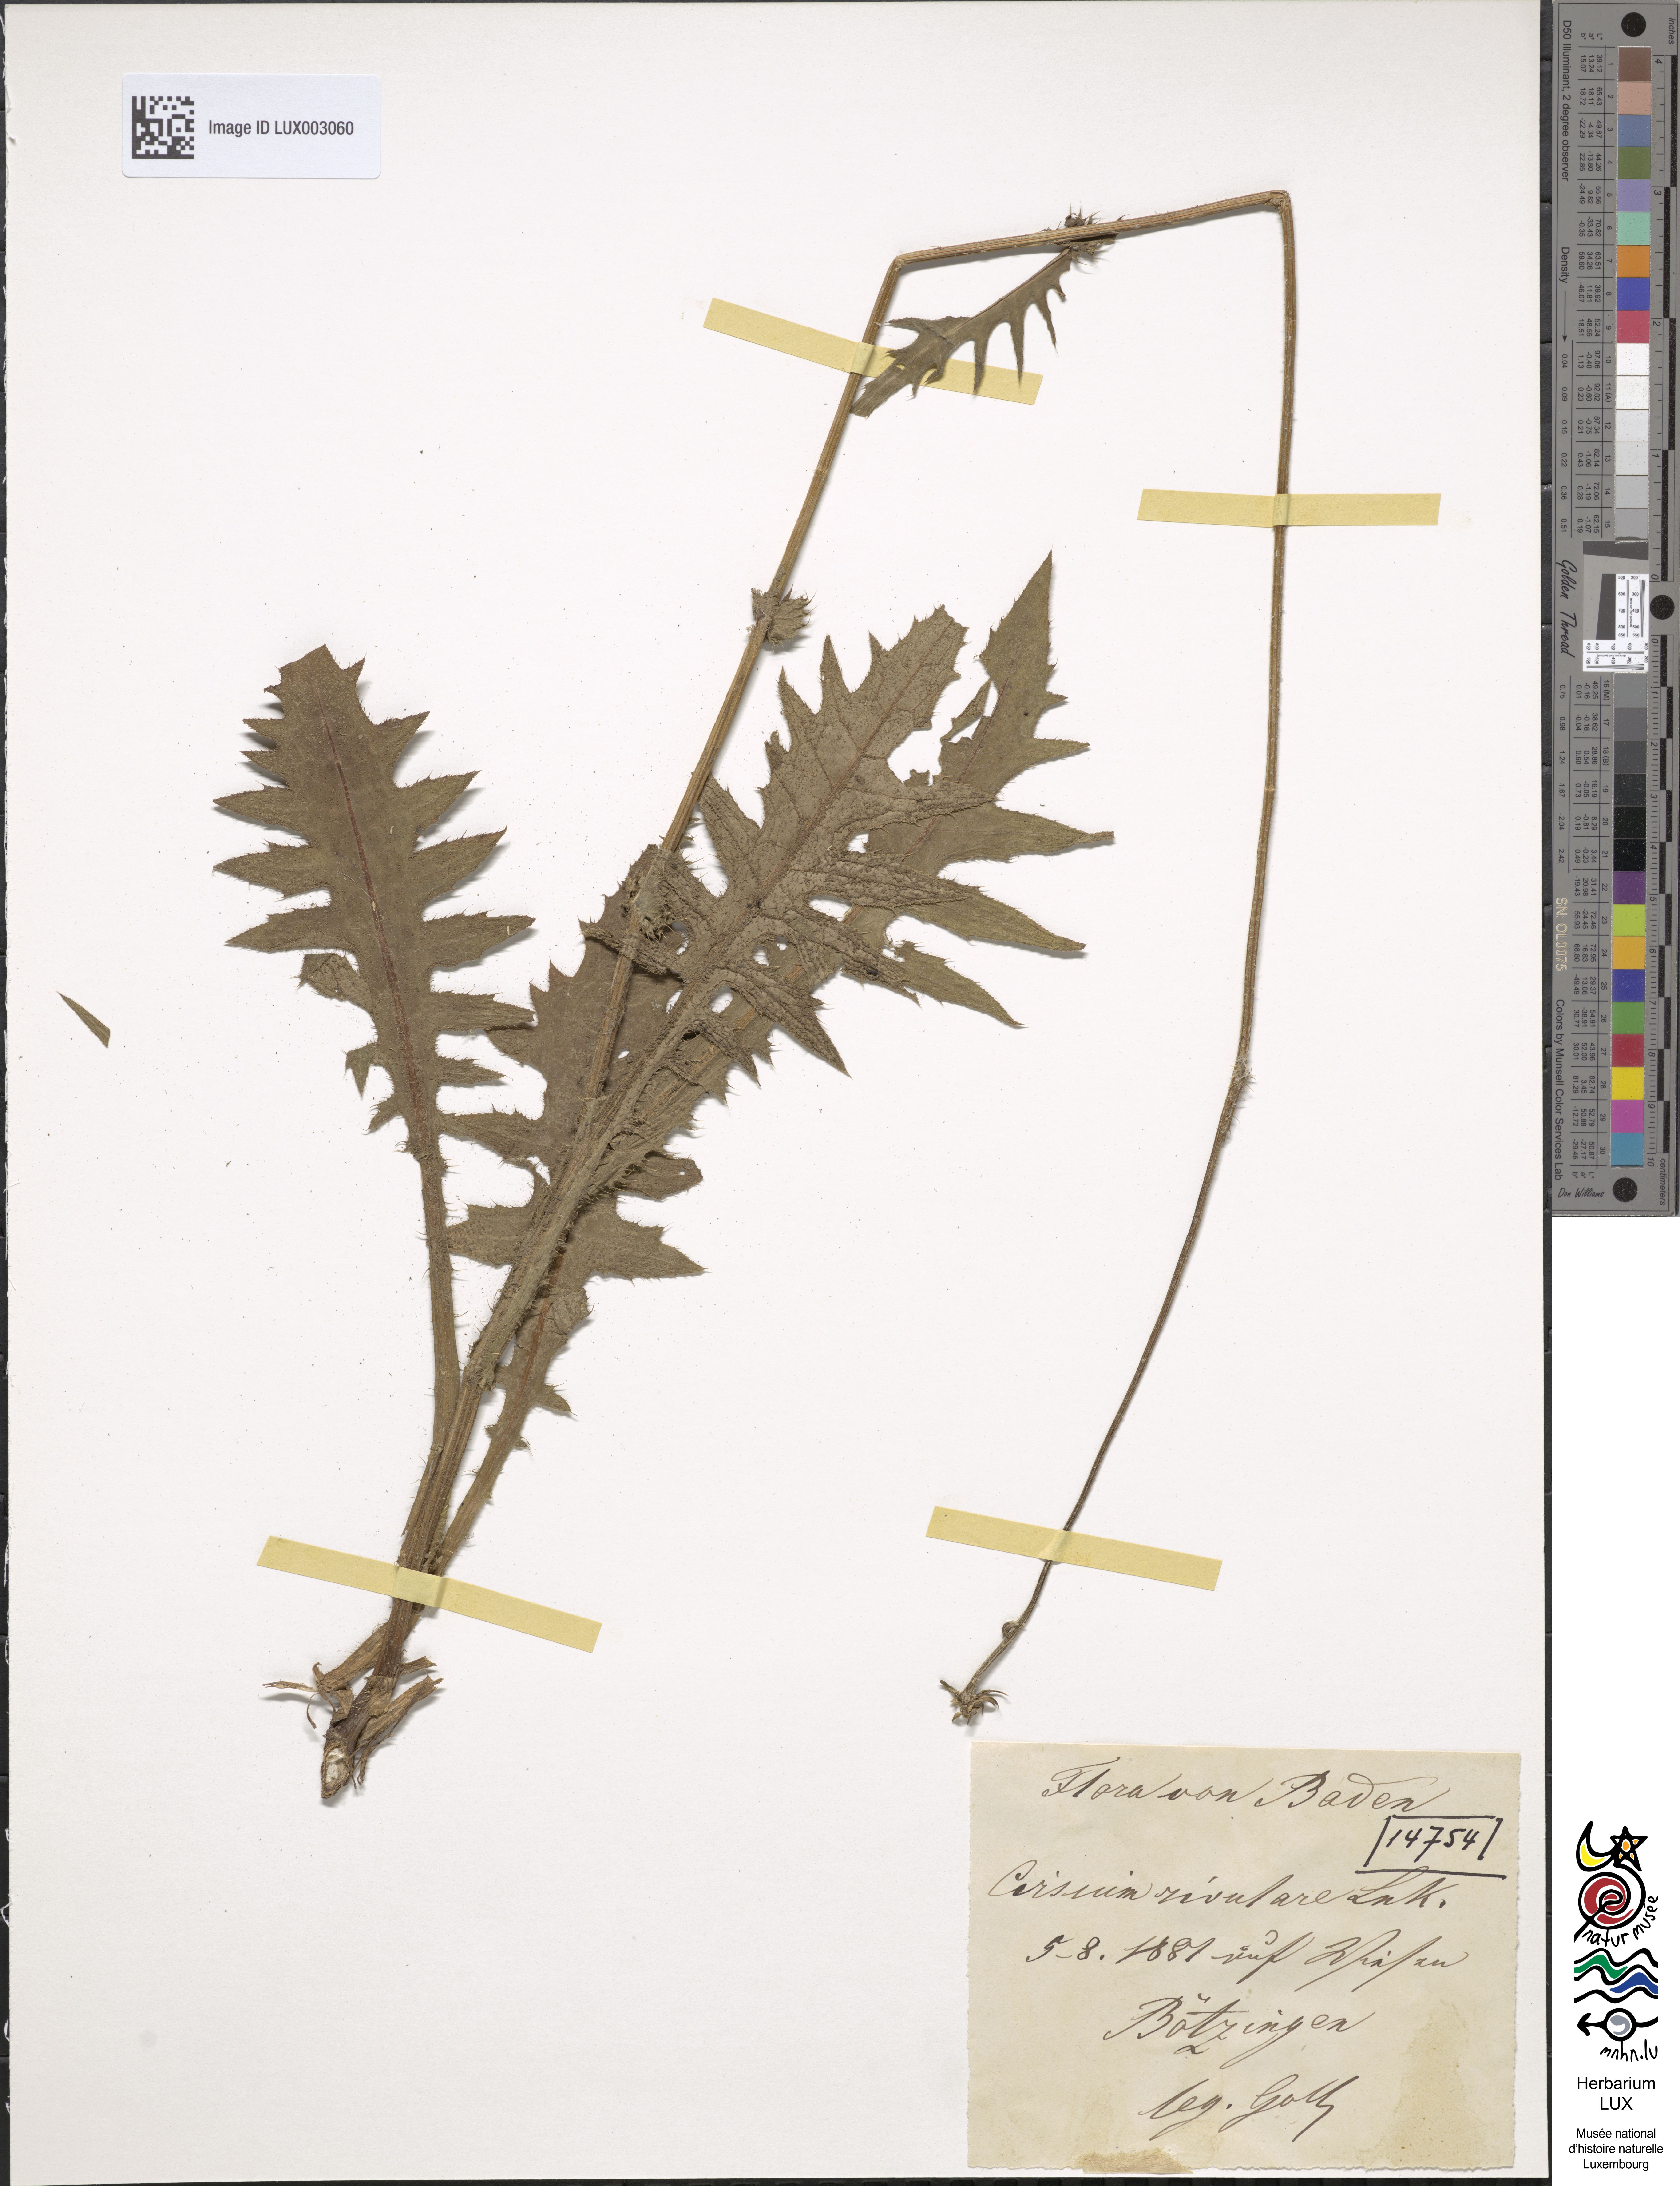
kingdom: Plantae
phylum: Tracheophyta
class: Magnoliopsida
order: Asterales
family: Asteraceae
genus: Cirsium
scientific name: Cirsium rivulare
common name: Brook thistle
